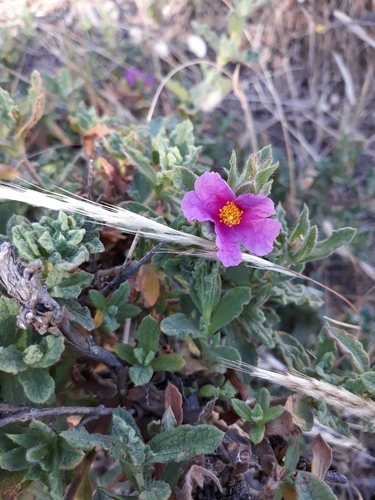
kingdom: Plantae
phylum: Tracheophyta
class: Magnoliopsida
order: Malvales
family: Cistaceae
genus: Cistus
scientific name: Cistus crispus
